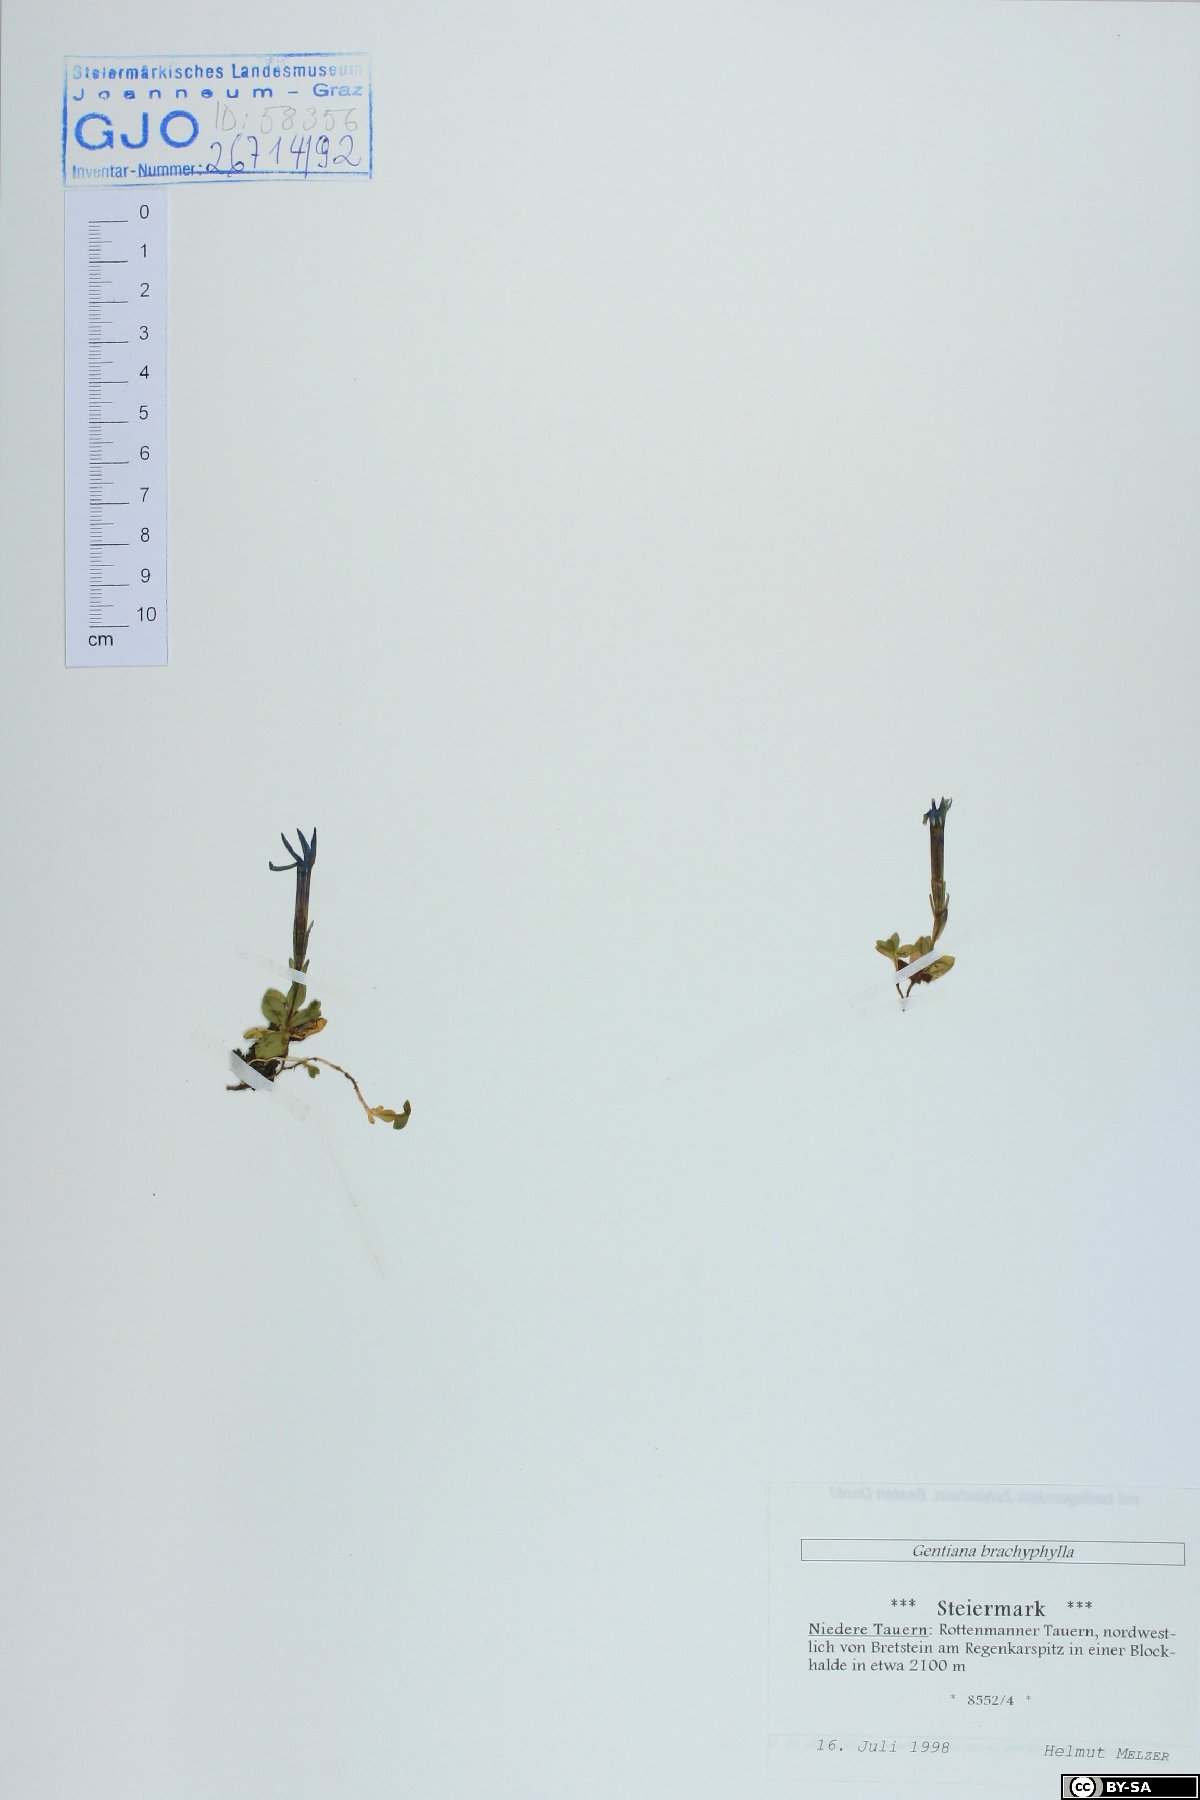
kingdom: Plantae
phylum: Tracheophyta
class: Magnoliopsida
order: Gentianales
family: Gentianaceae
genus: Gentiana
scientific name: Gentiana brachyphylla
